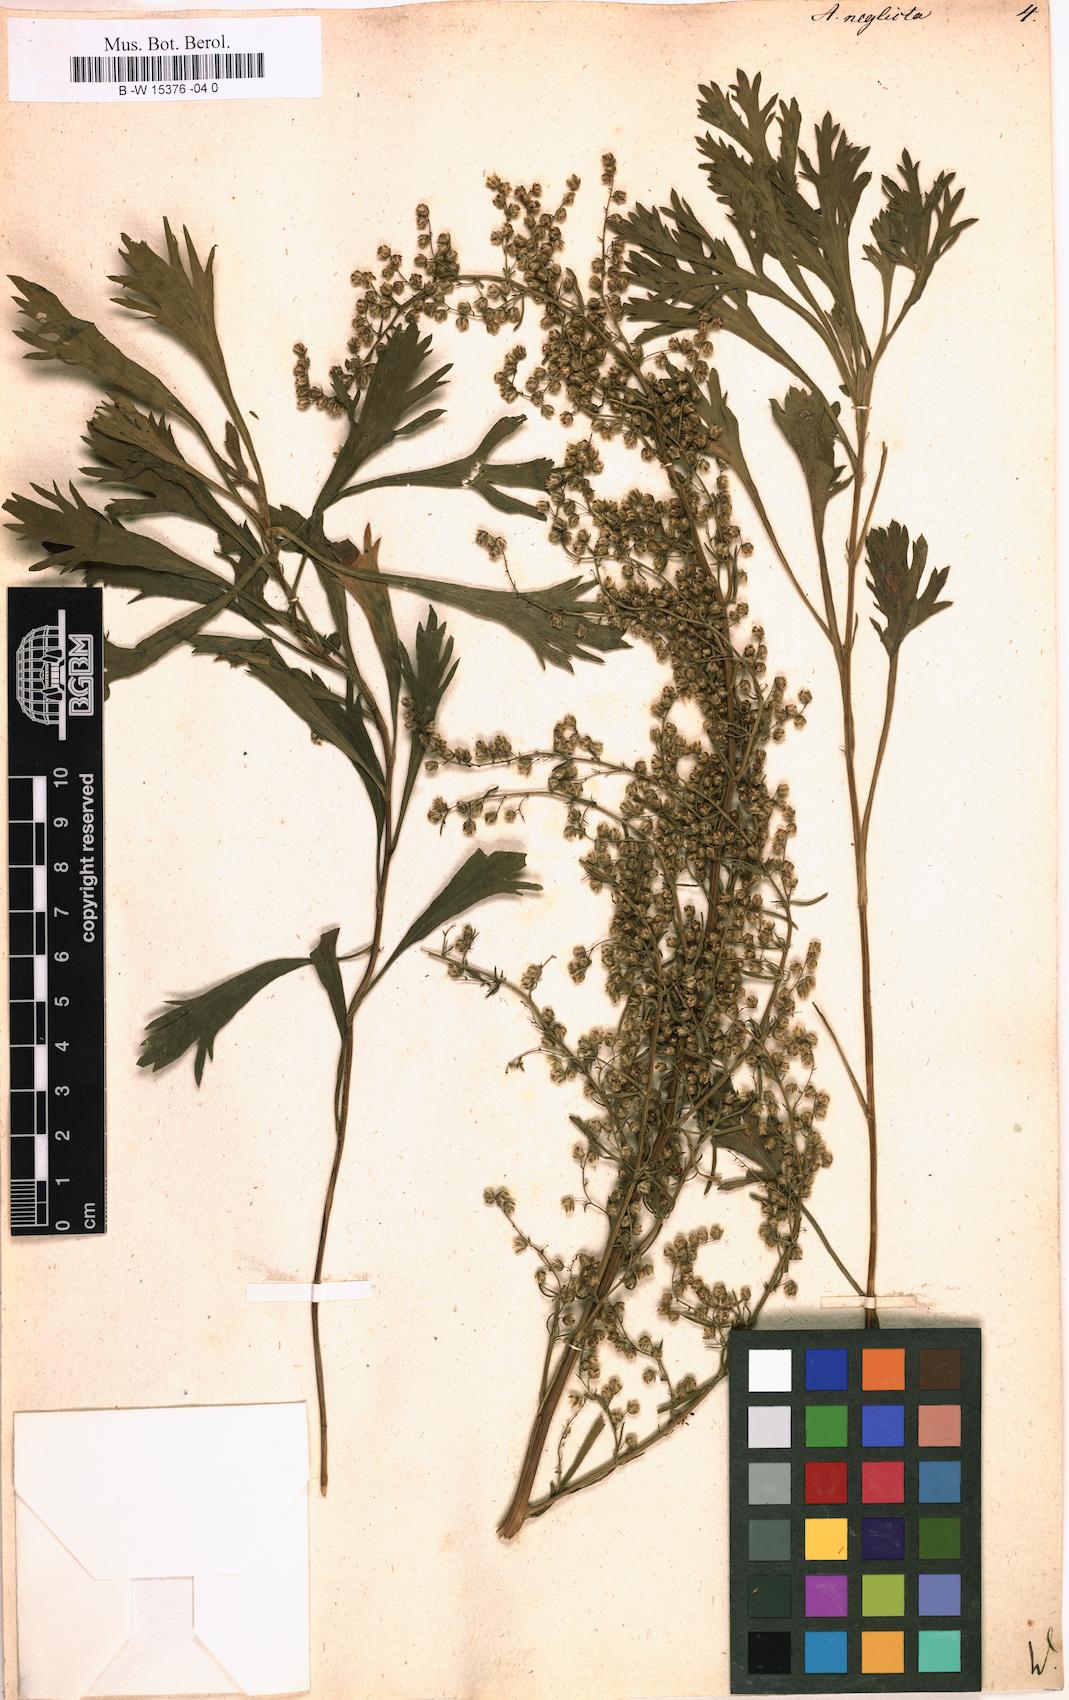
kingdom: Plantae
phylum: Tracheophyta
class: Magnoliopsida
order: Asterales
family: Asteraceae
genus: Artemisia
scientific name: Artemisia desertorum
